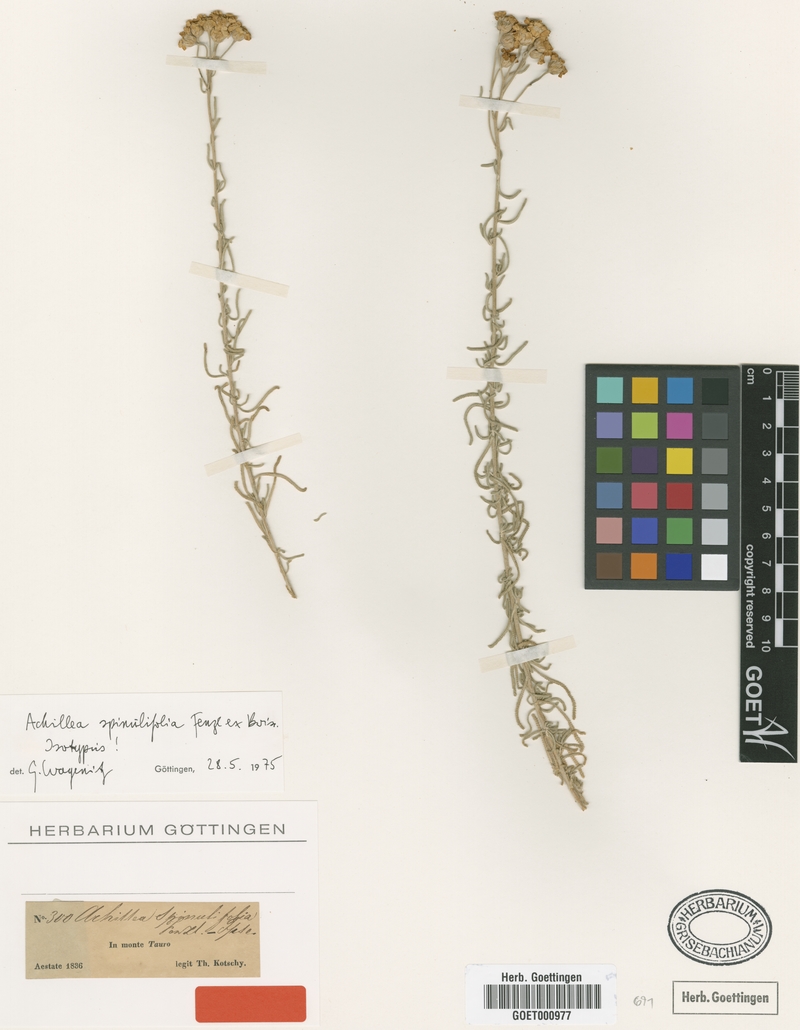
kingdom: Plantae
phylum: Tracheophyta
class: Magnoliopsida
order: Asterales
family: Asteraceae
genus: Achillea
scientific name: Achillea spinulifolia
